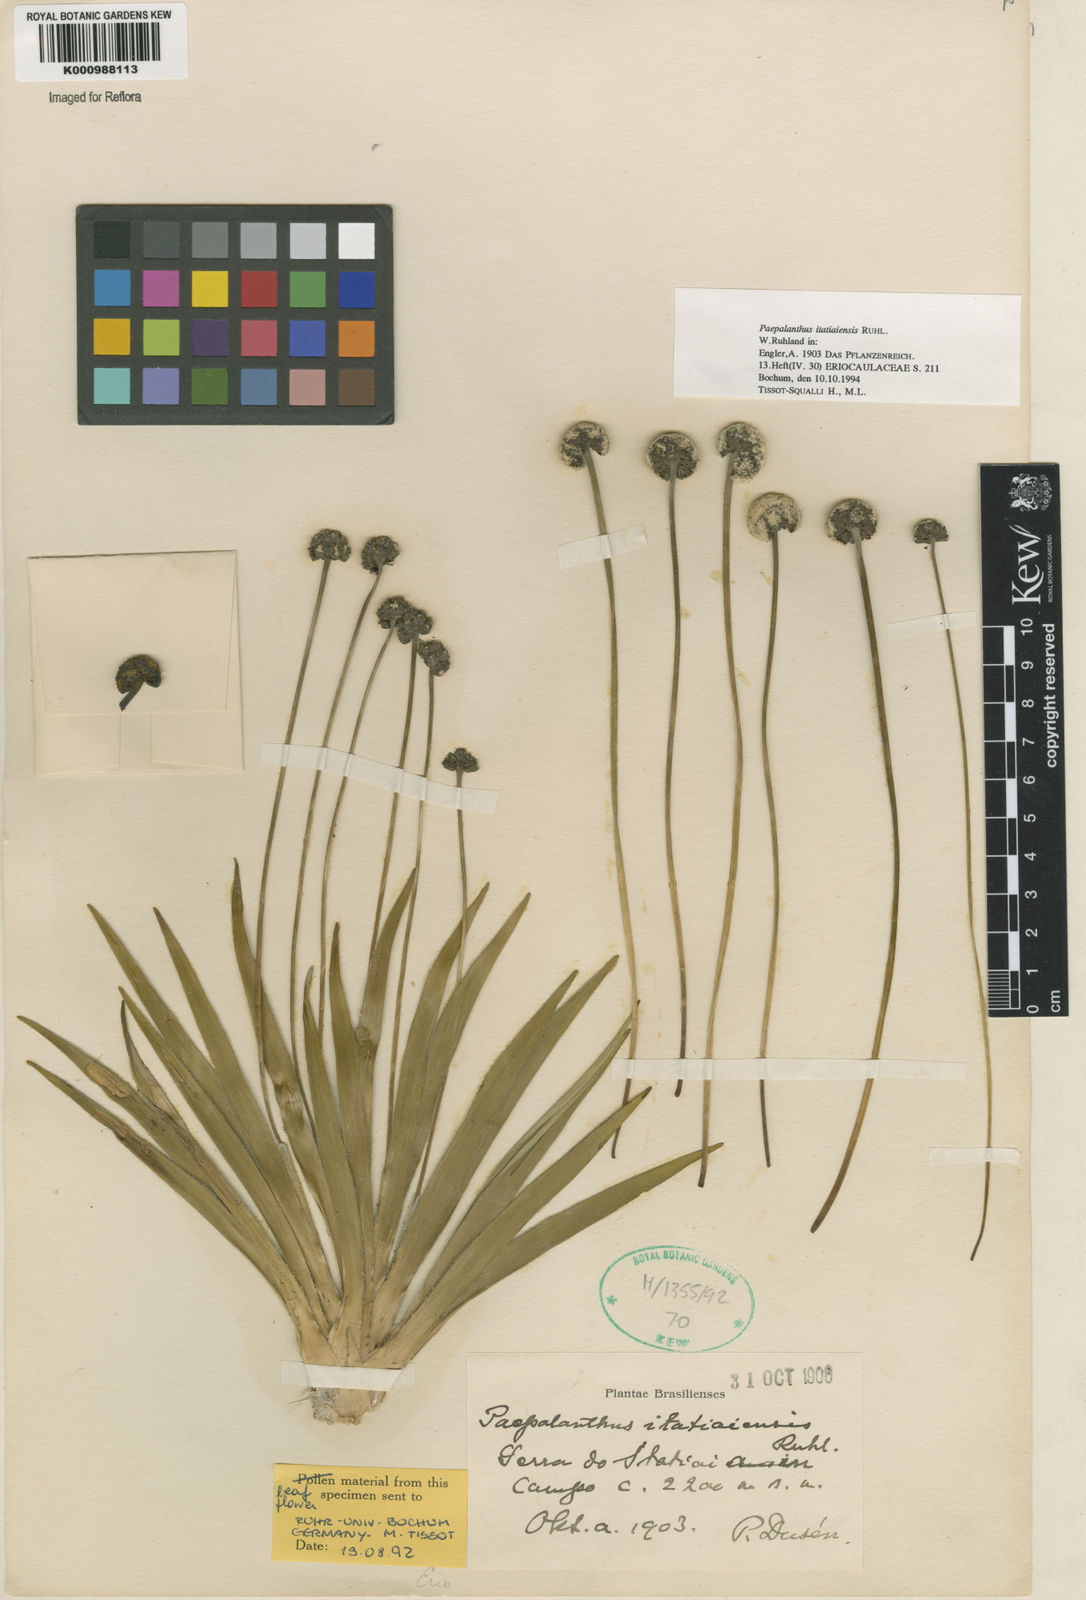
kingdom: Plantae
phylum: Tracheophyta
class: Liliopsida
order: Poales
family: Eriocaulaceae
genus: Paepalanthus
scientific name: Paepalanthus itatiaiensis
